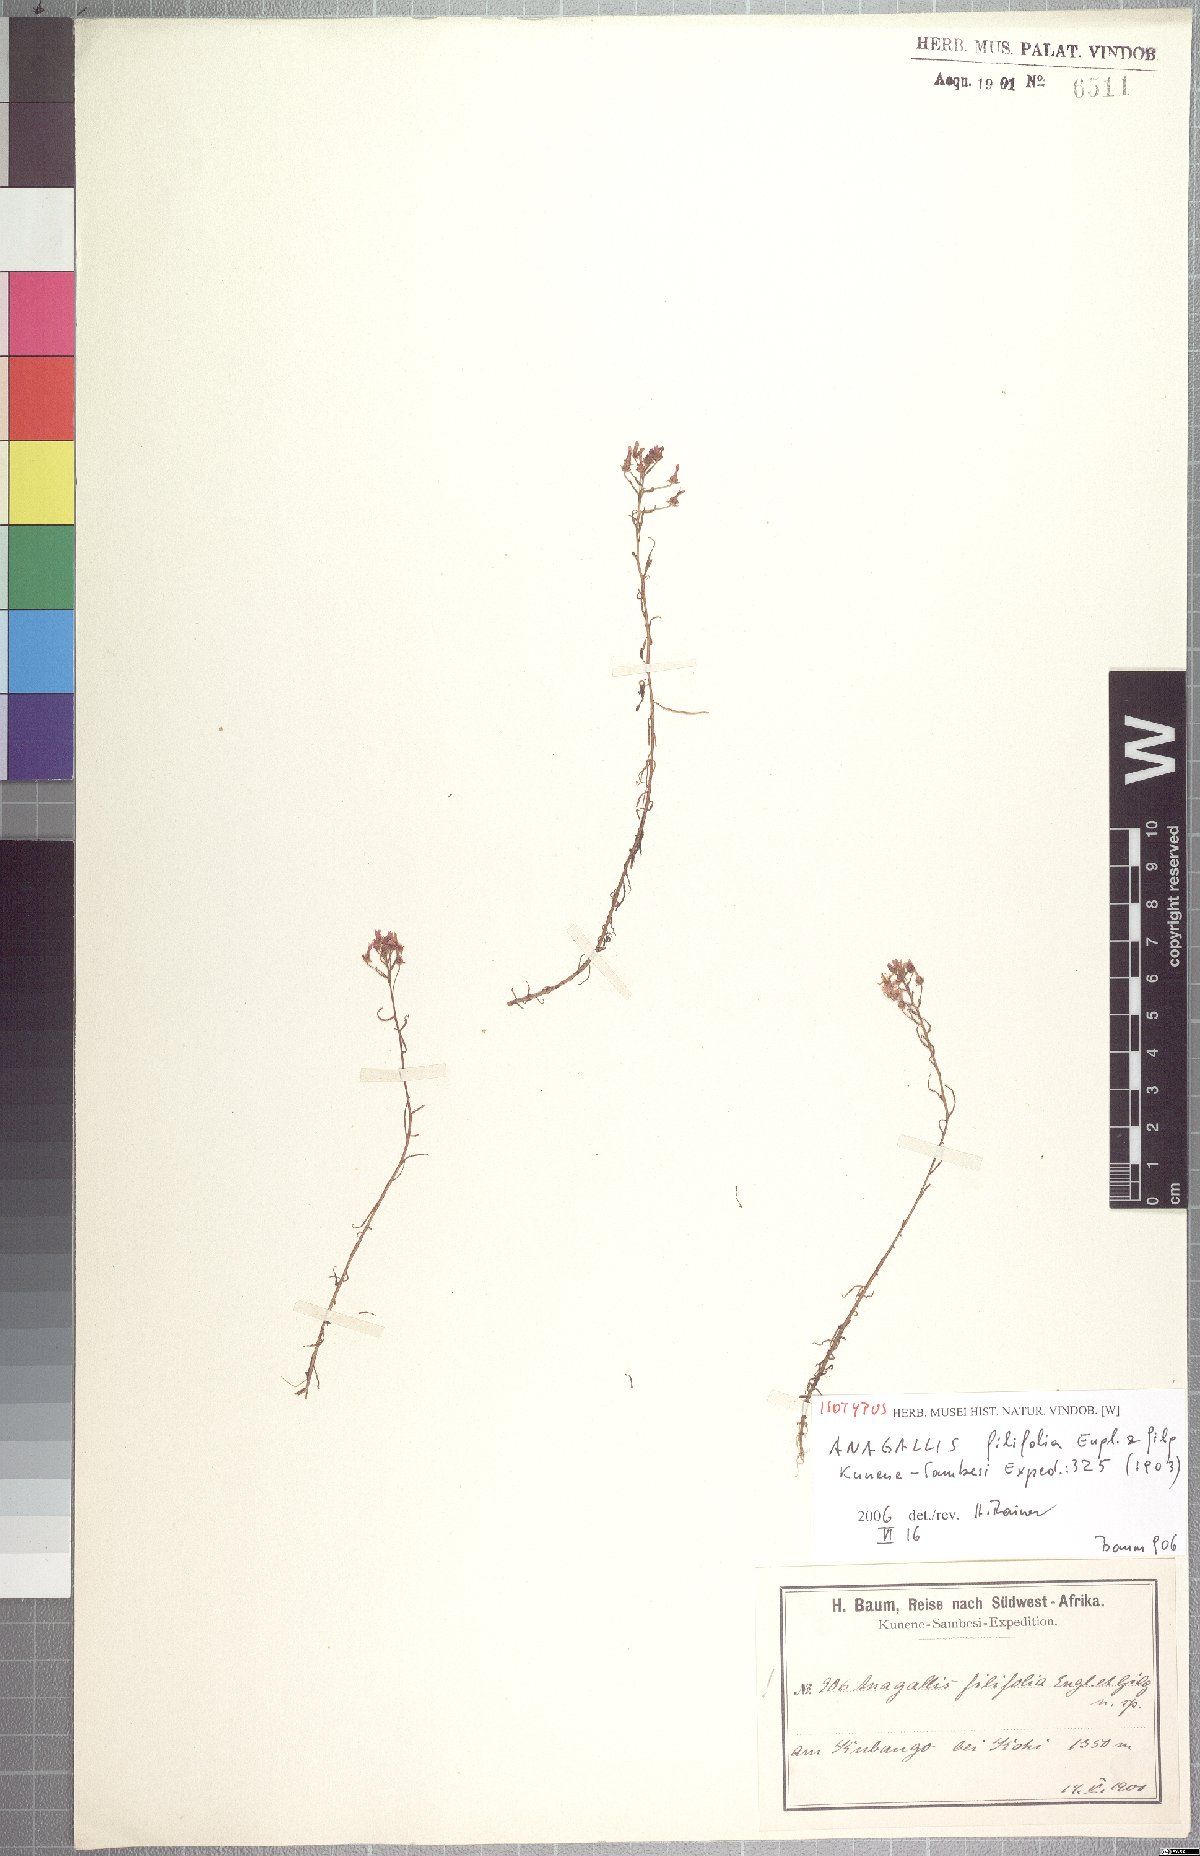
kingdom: Plantae
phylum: Tracheophyta
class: Magnoliopsida
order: Ericales
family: Primulaceae
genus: Lysimachia
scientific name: Lysimachia cubangensis
